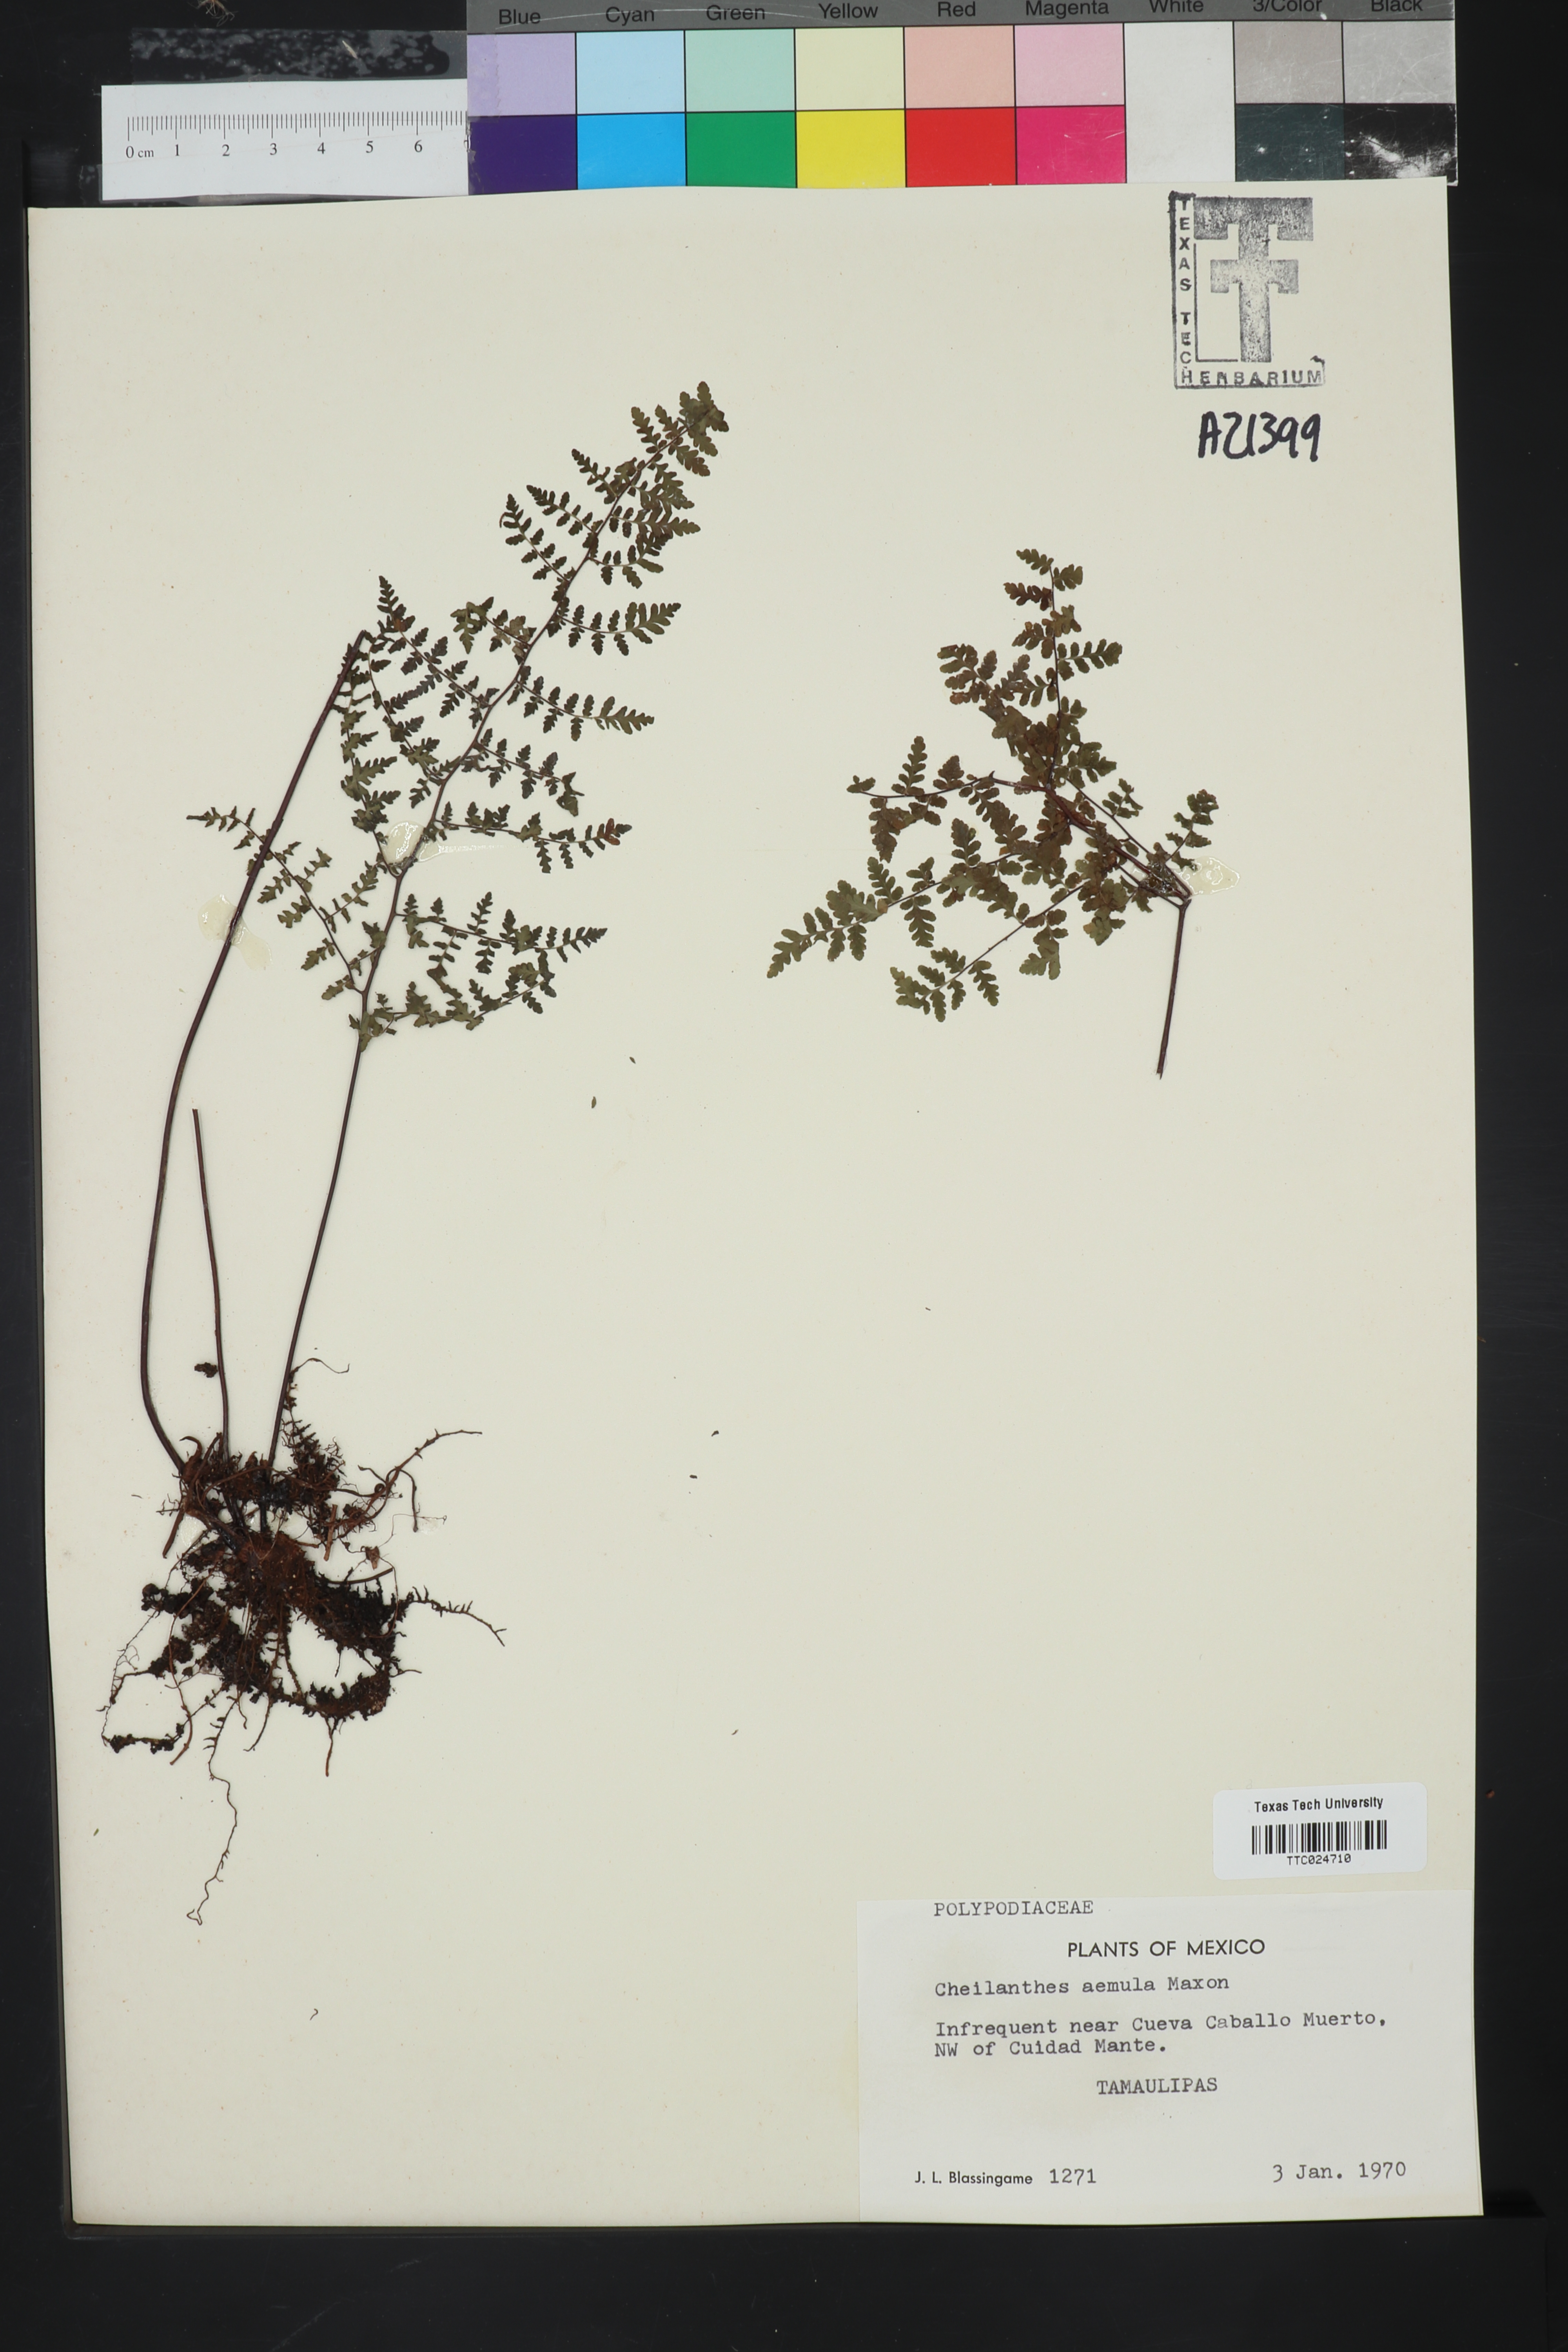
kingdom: Plantae
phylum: Tracheophyta
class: Polypodiopsida
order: Polypodiales
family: Pteridaceae
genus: Myriopteris
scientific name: Myriopteris aemula
